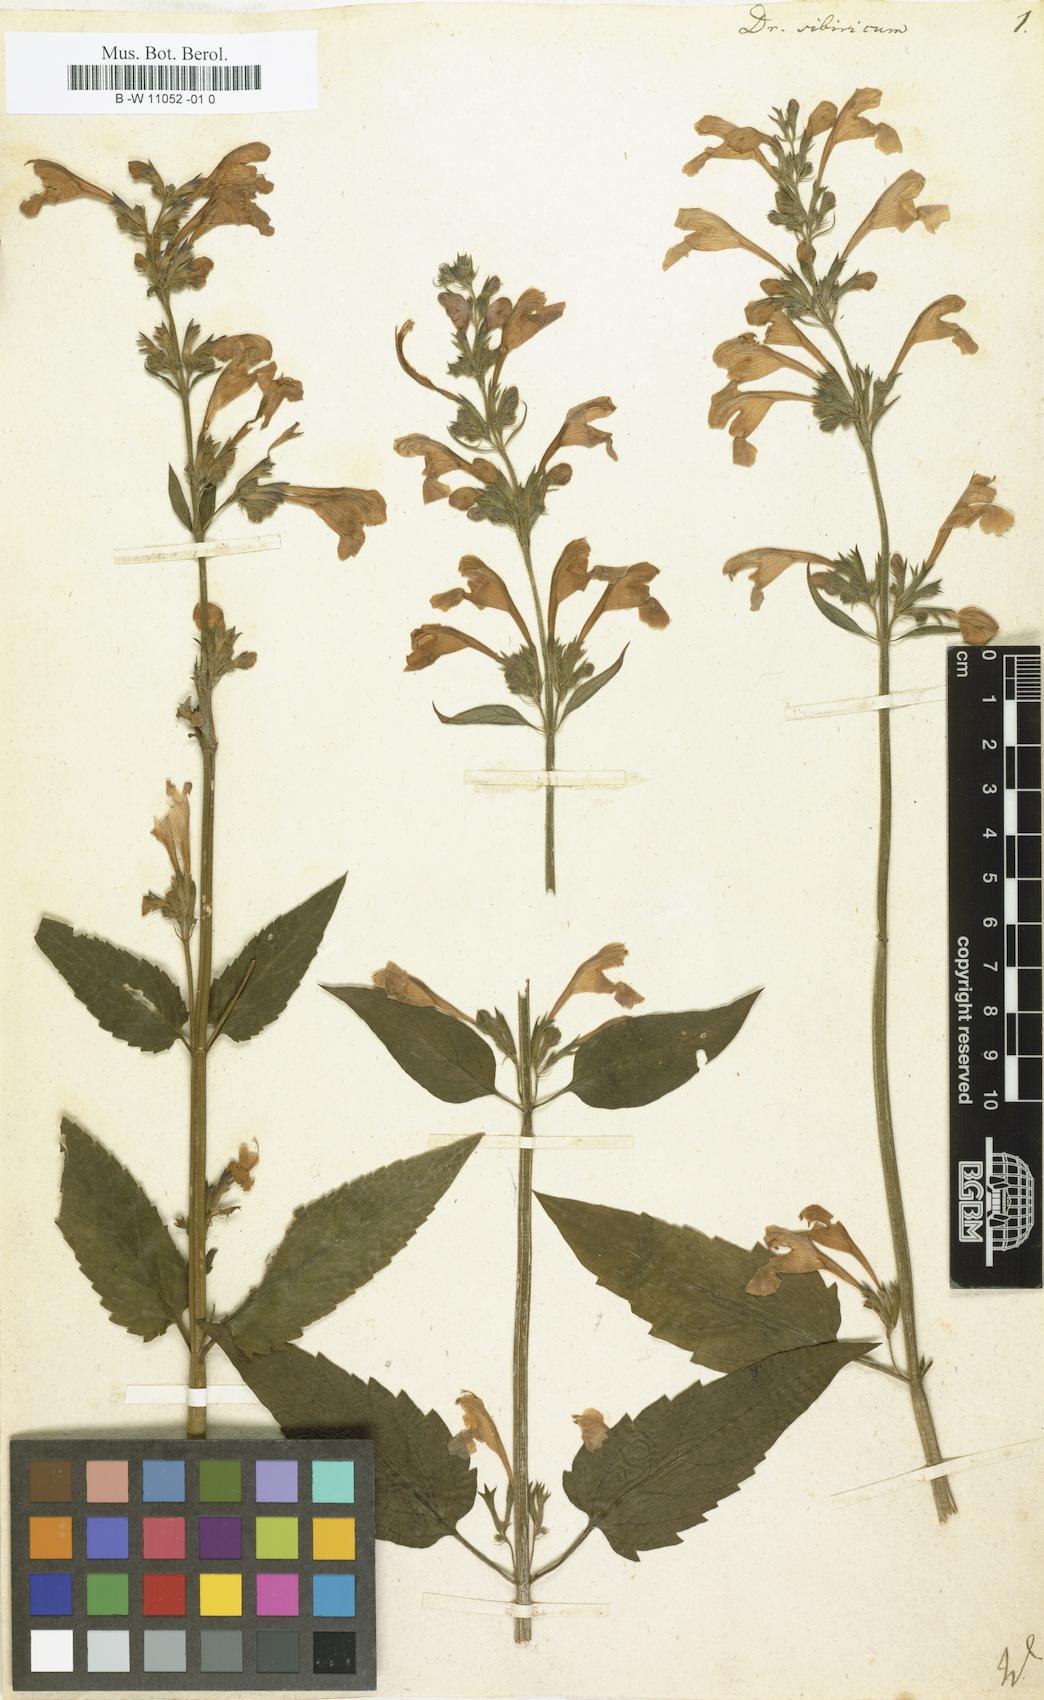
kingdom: Plantae
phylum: Tracheophyta
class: Magnoliopsida
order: Lamiales
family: Lamiaceae
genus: Nepeta
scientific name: Nepeta sibirica
